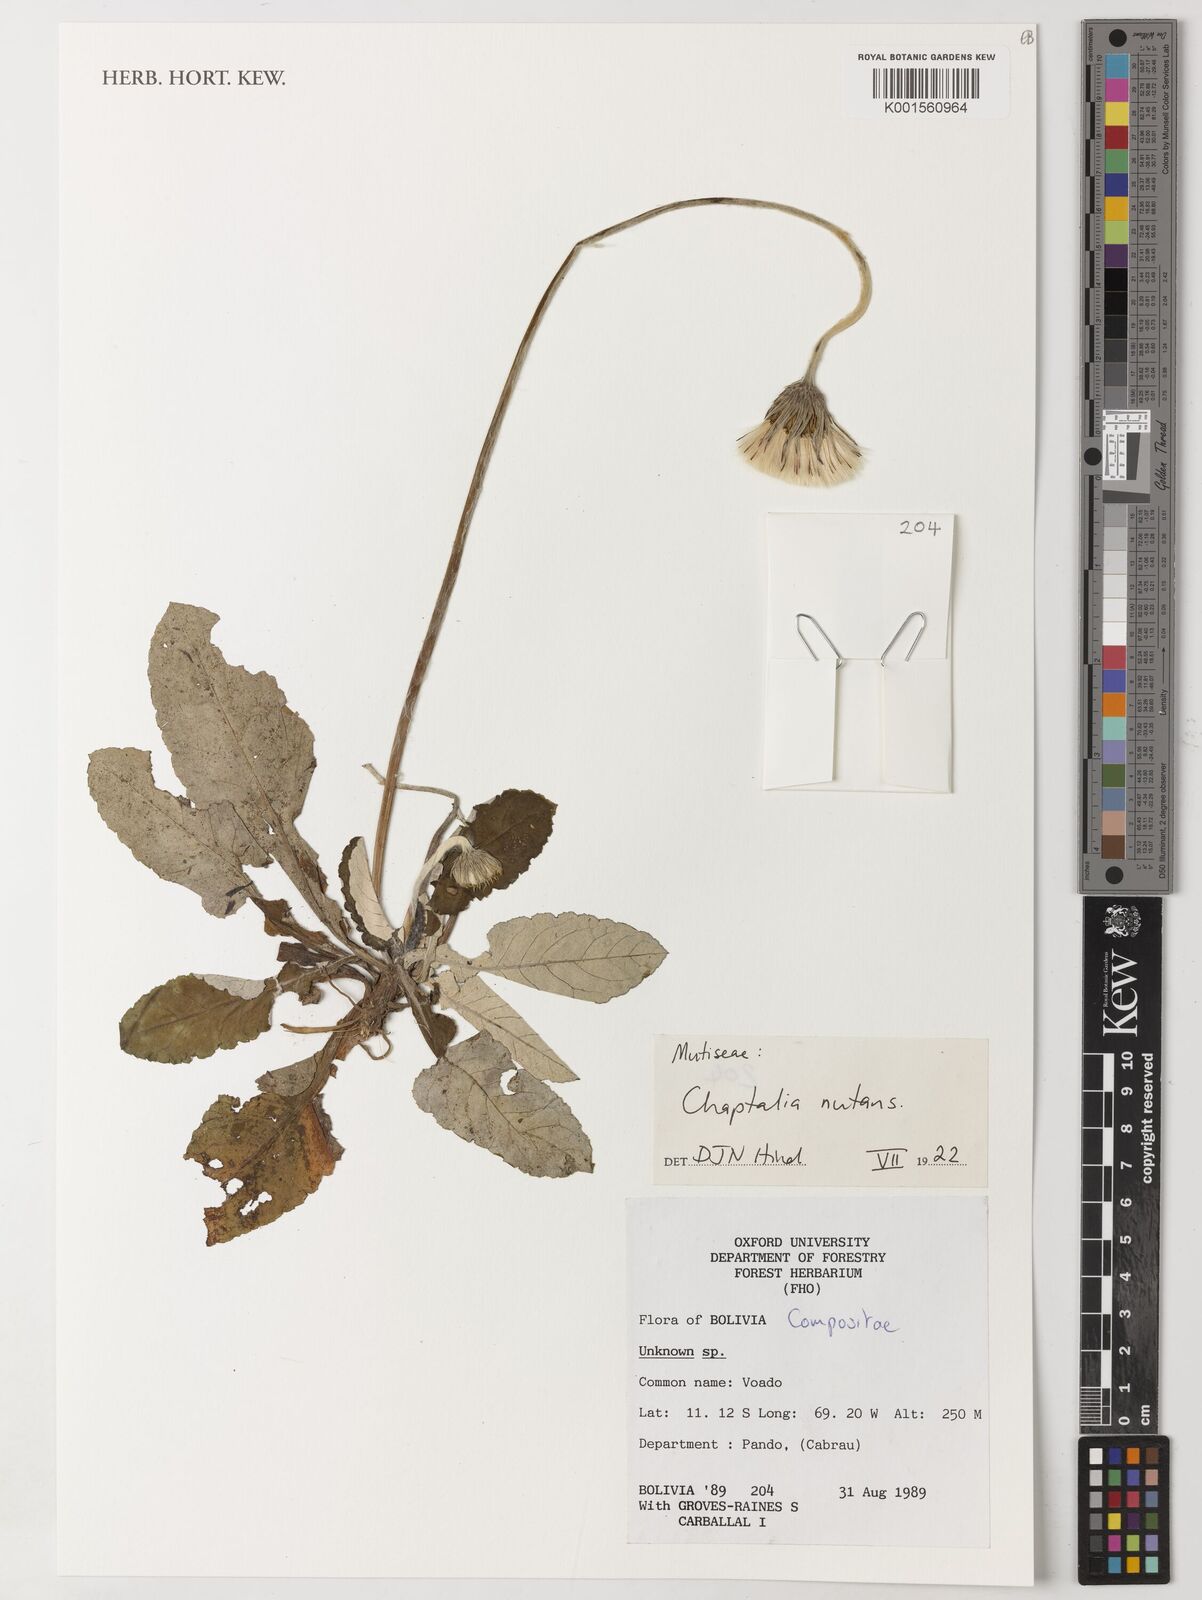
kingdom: Plantae
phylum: Tracheophyta
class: Magnoliopsida
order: Asterales
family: Asteraceae
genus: Chaptalia
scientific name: Chaptalia nutans
